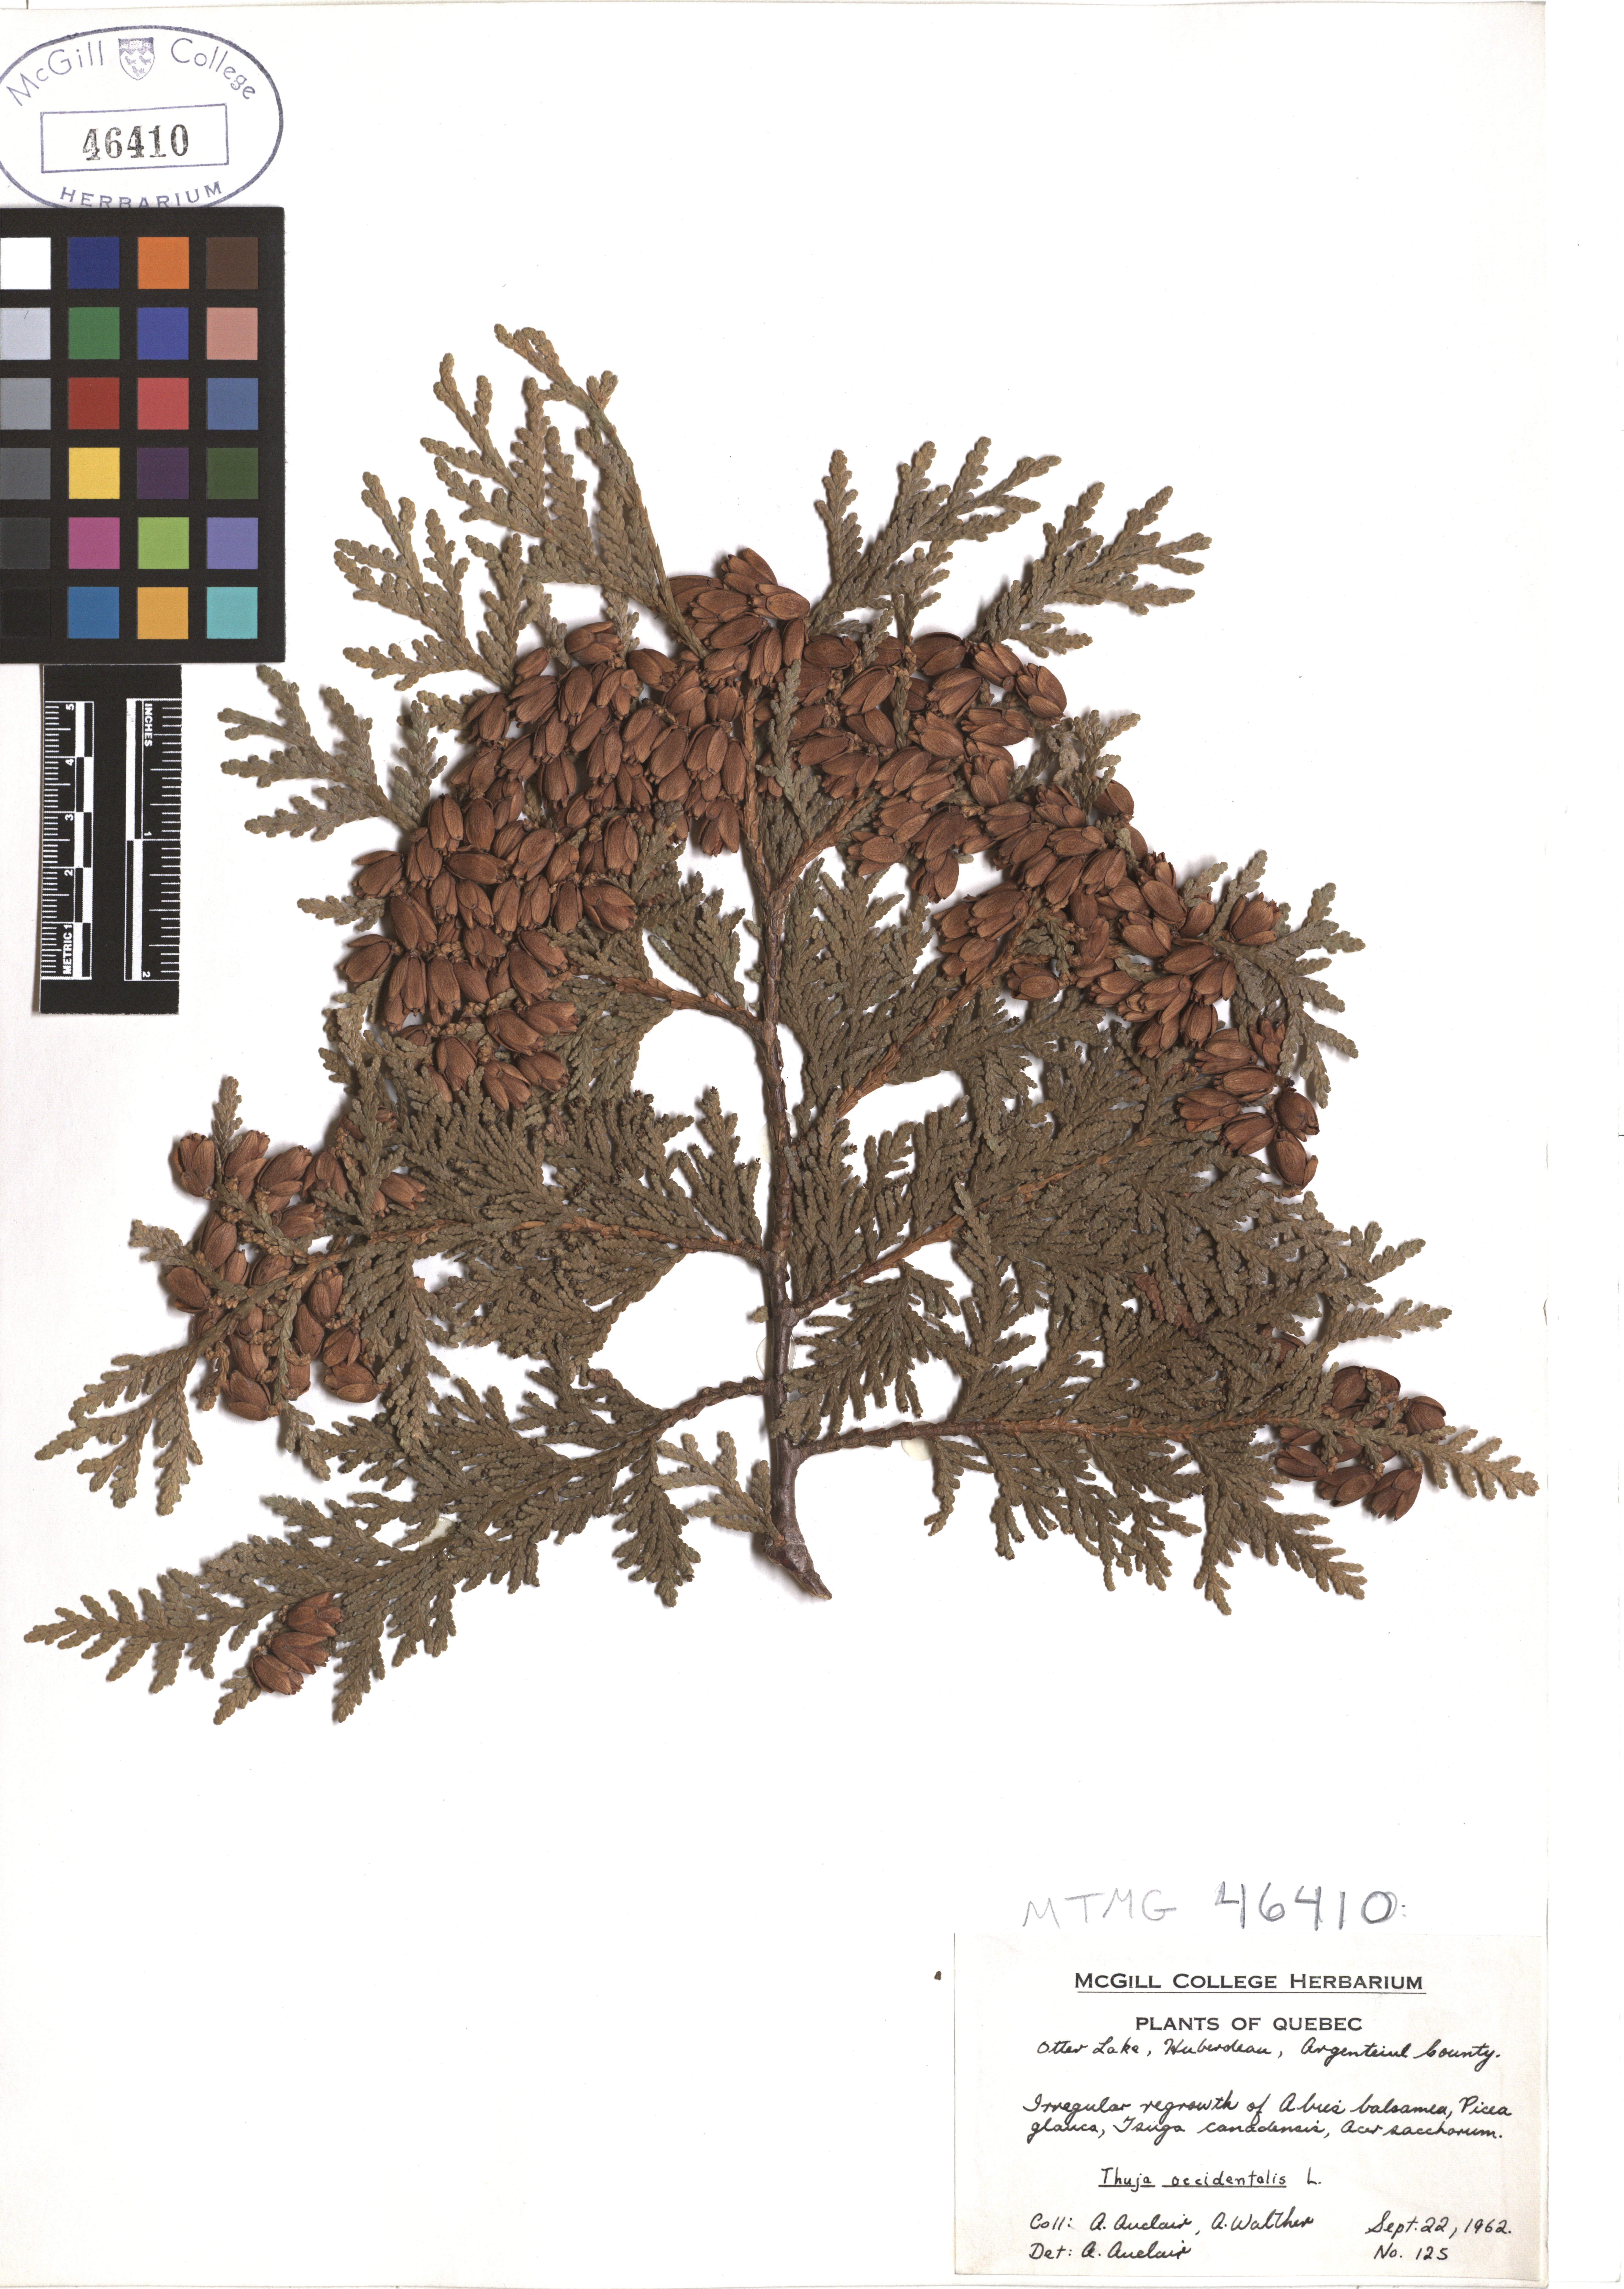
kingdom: Plantae
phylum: Tracheophyta
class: Pinopsida
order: Pinales
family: Cupressaceae
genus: Thuja
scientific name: Thuja occidentalis
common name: Northern white-cedar
